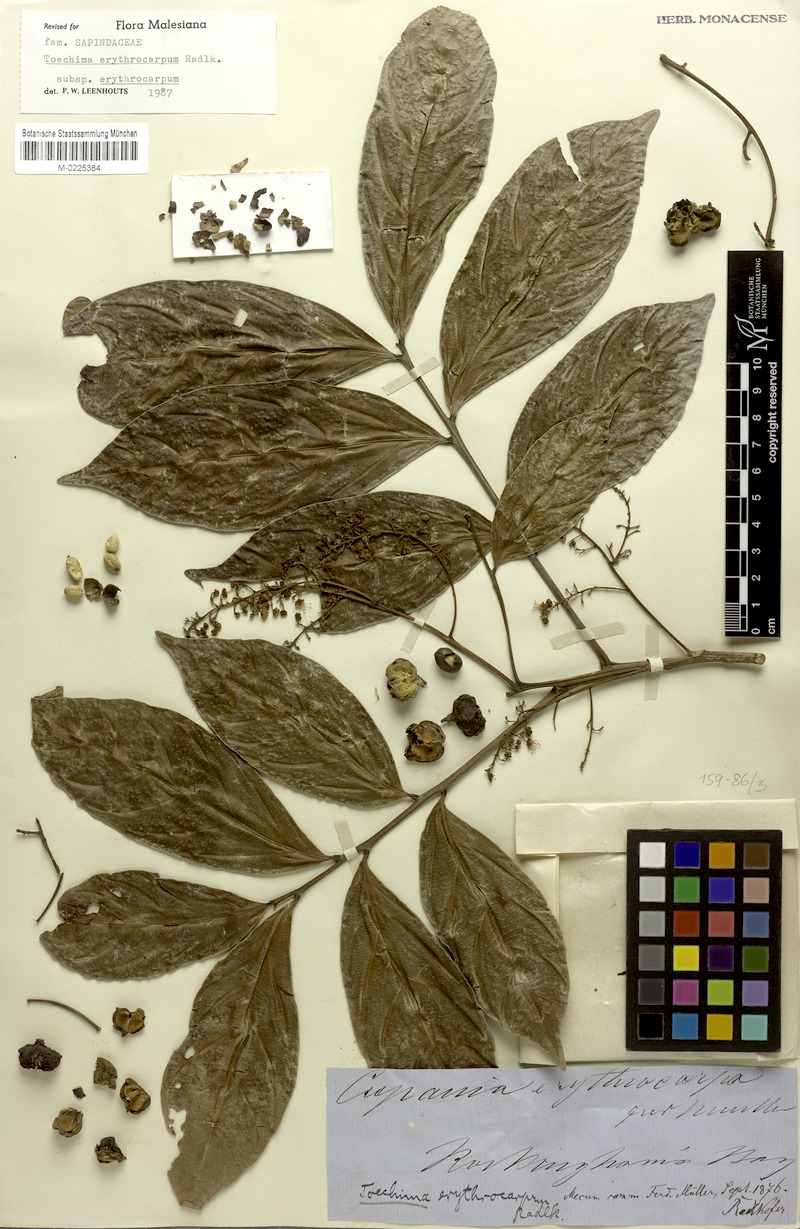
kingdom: Plantae
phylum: Tracheophyta
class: Magnoliopsida
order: Sapindales
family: Sapindaceae
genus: Toechima
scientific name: Toechima erythrocarpum
